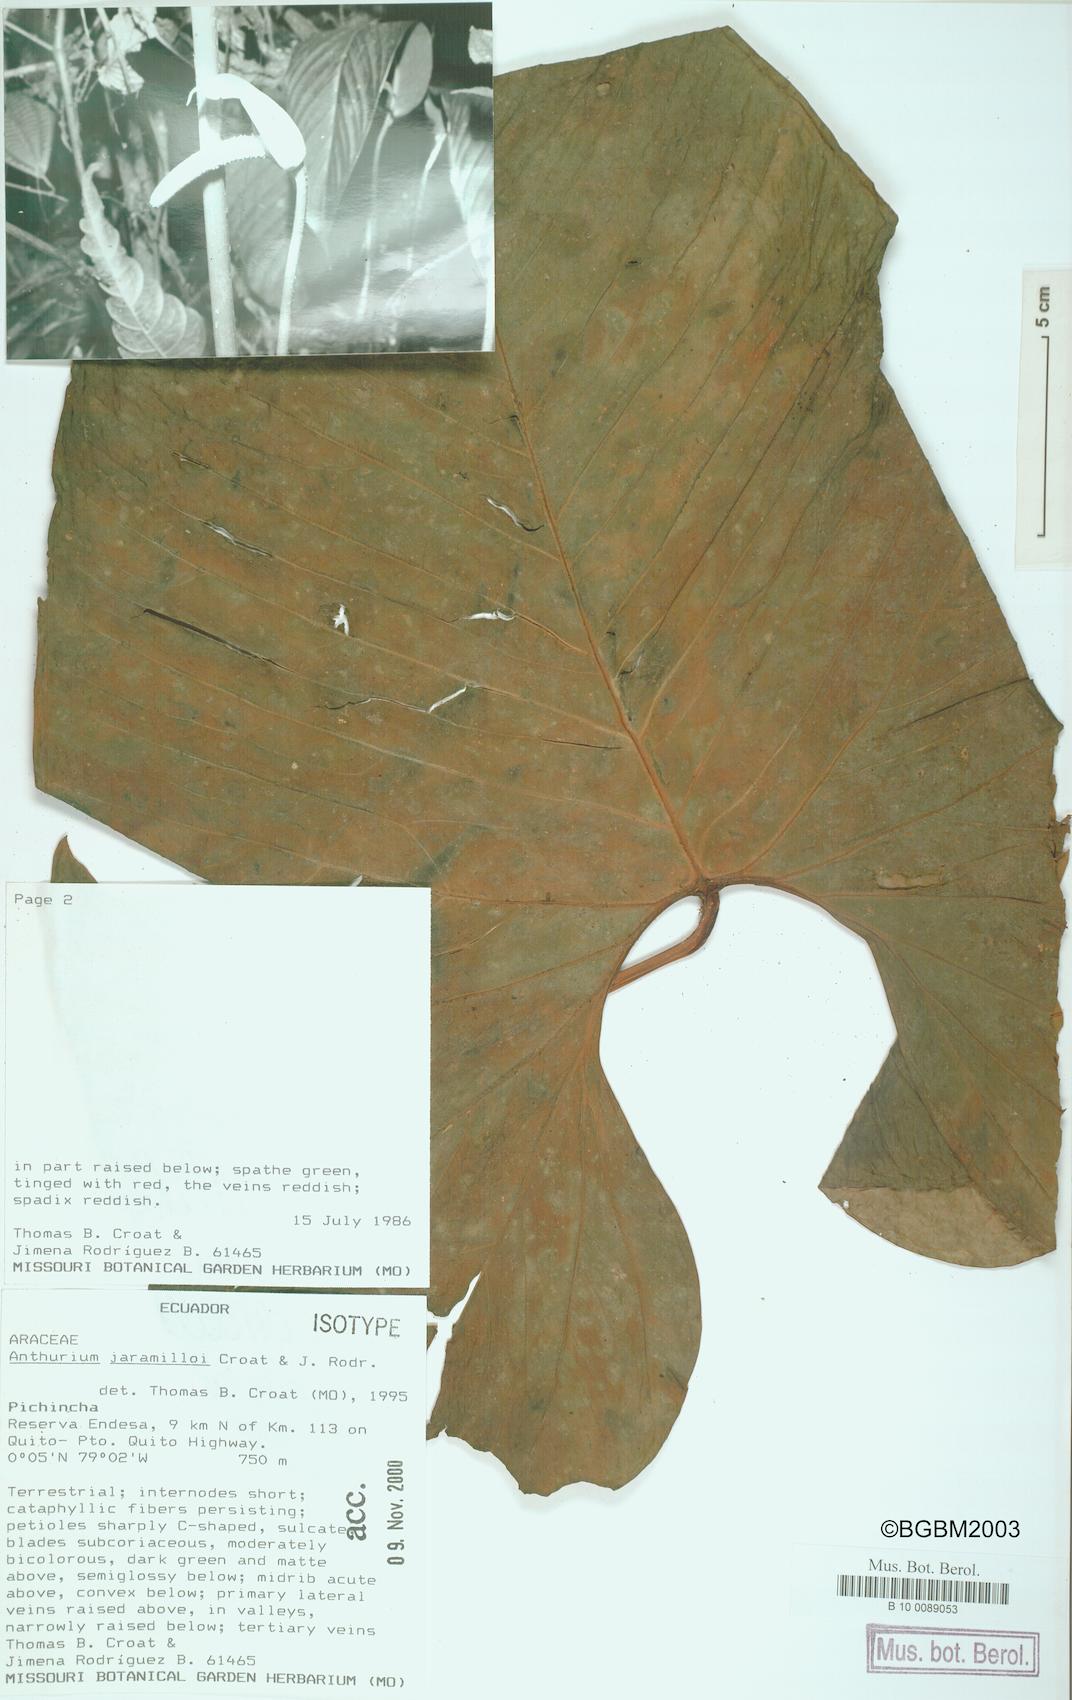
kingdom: Plantae
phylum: Tracheophyta
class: Liliopsida
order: Alismatales
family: Araceae
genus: Anthurium
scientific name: Anthurium jaramilloi
